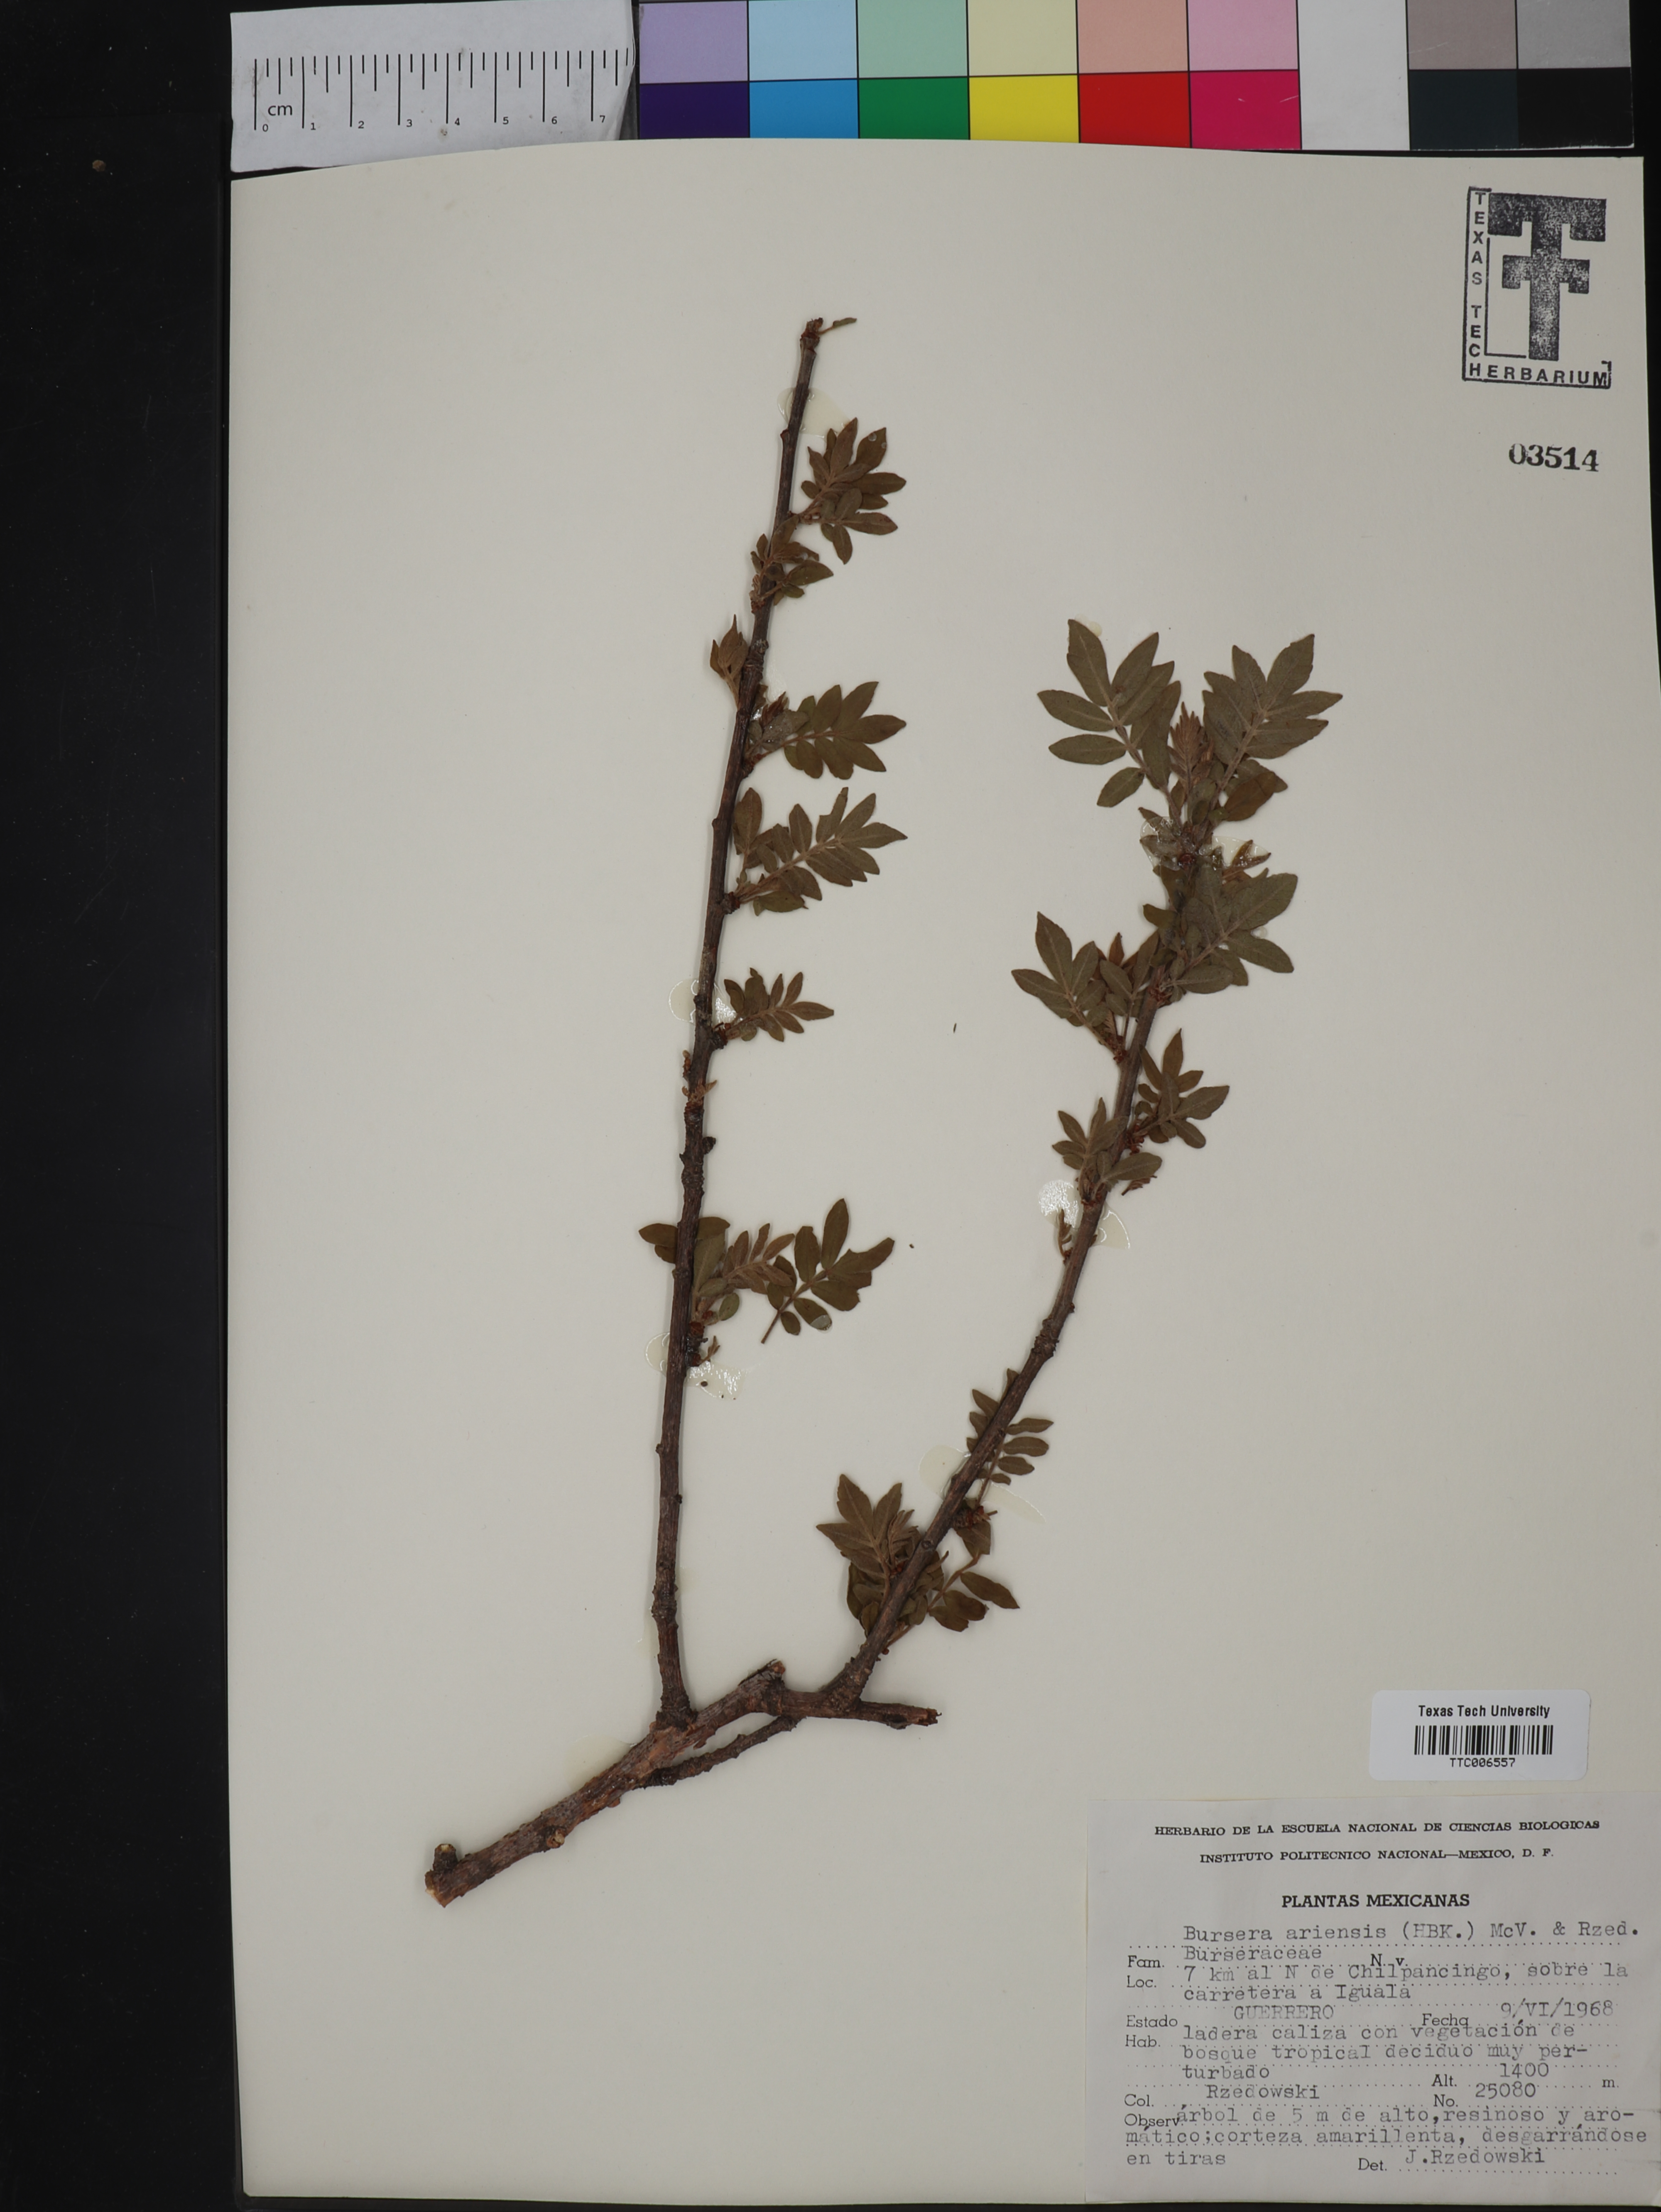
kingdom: Plantae
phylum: Tracheophyta
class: Magnoliopsida
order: Sapindales
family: Burseraceae
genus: Bursera
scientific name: Bursera ariensis
